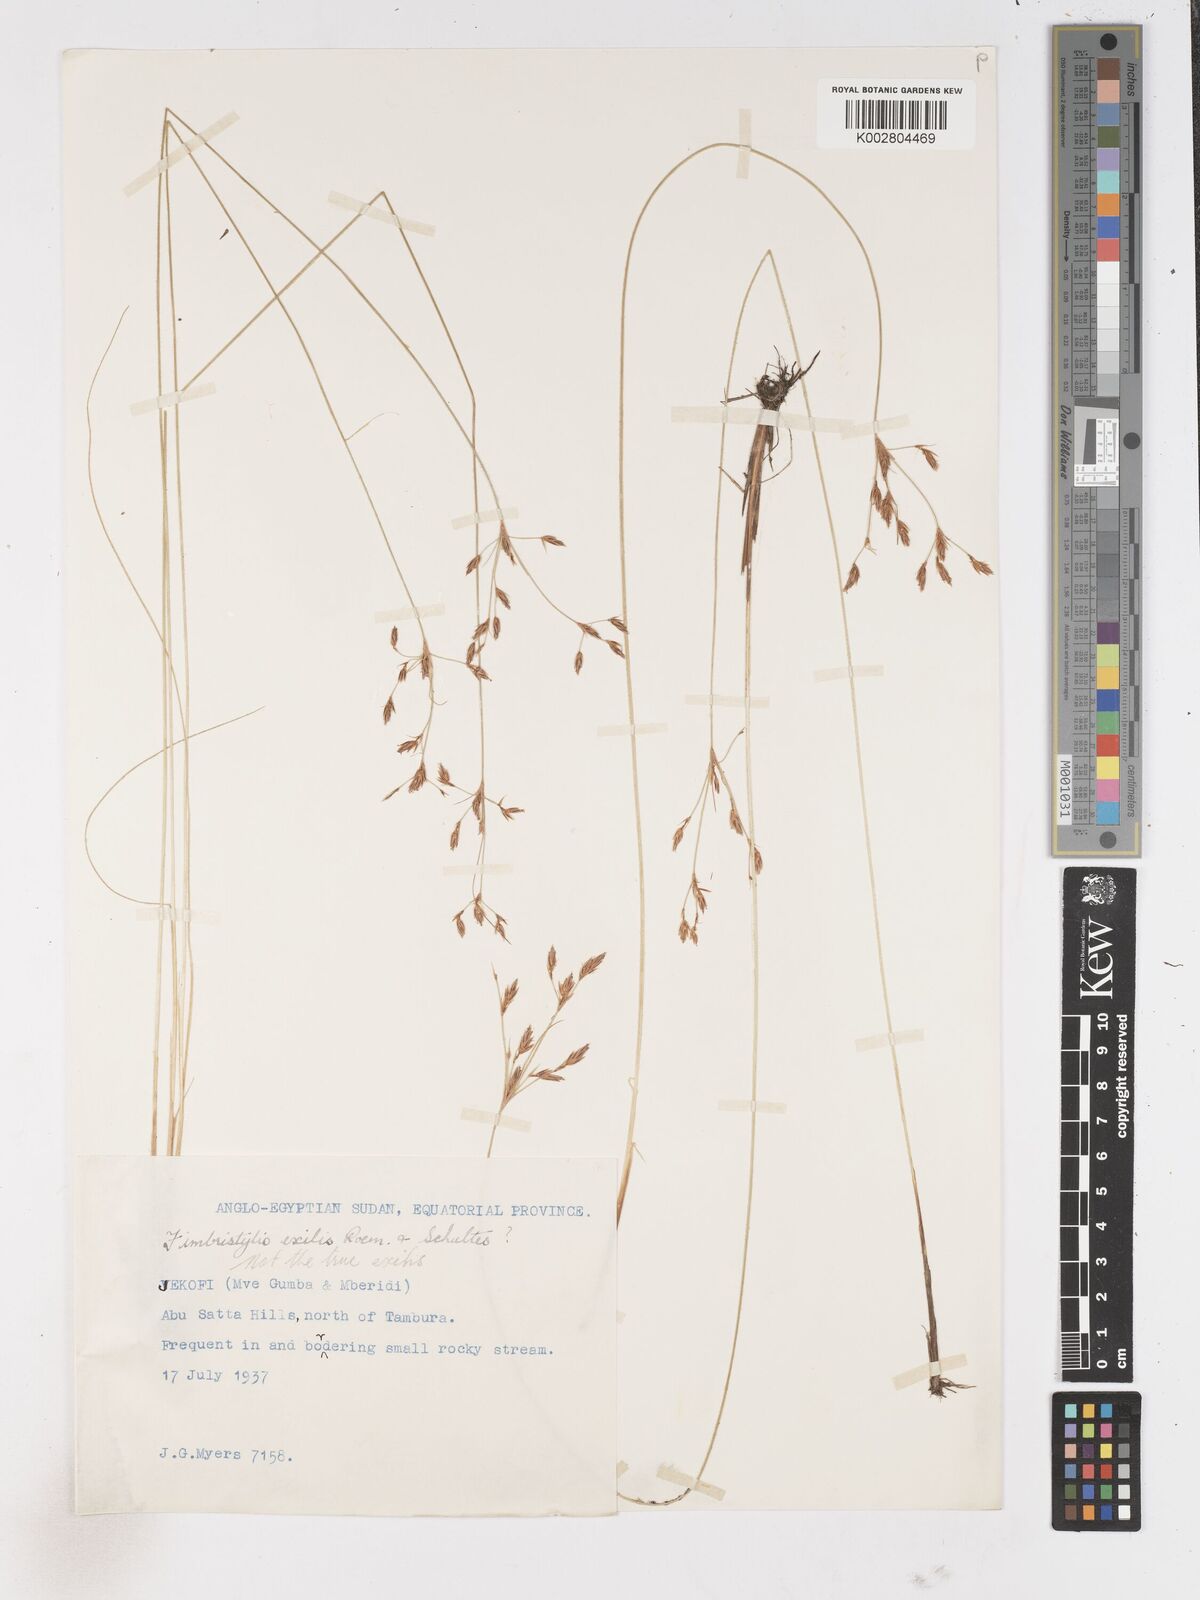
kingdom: Plantae
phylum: Tracheophyta
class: Liliopsida
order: Poales
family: Cyperaceae
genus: Fimbristylis
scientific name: Fimbristylis
